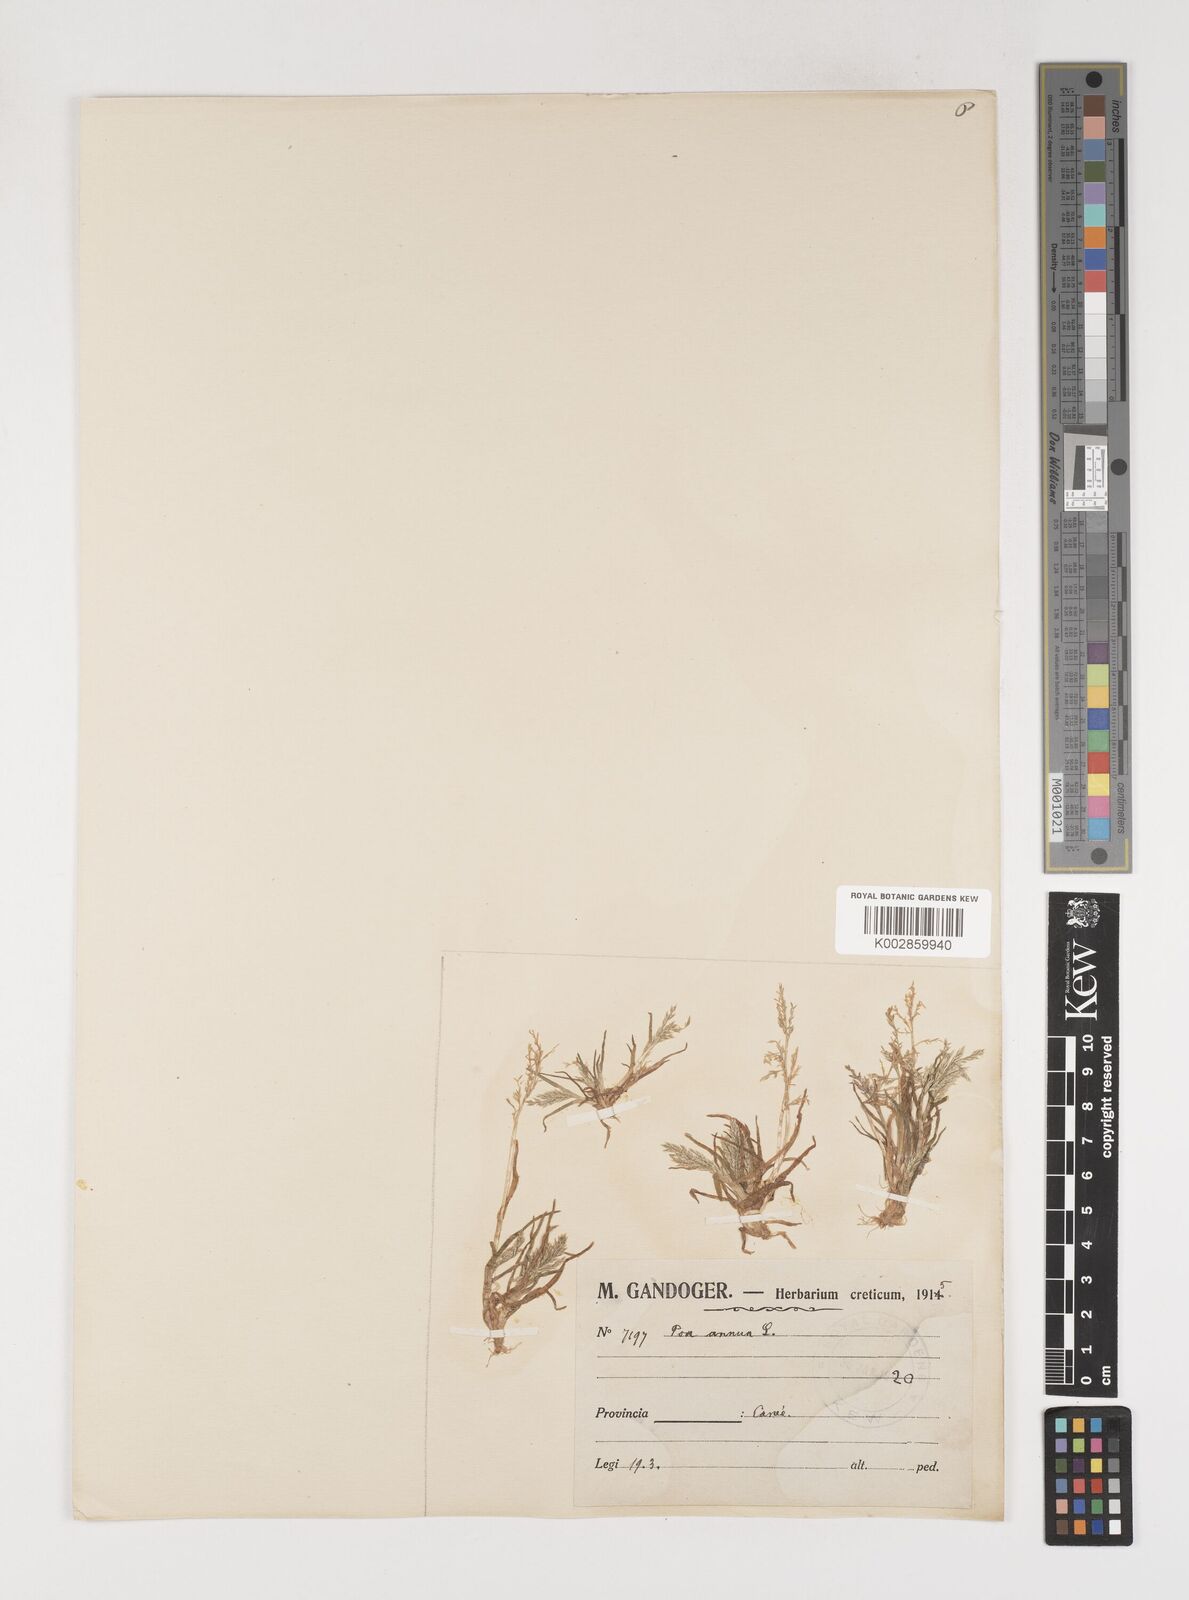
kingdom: Plantae
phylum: Tracheophyta
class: Liliopsida
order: Poales
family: Poaceae
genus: Poa
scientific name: Poa annua
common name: Annual bluegrass
